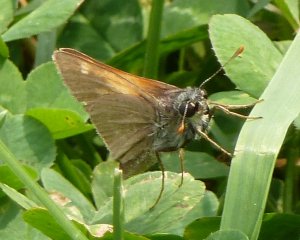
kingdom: Animalia
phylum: Arthropoda
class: Insecta
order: Lepidoptera
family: Hesperiidae
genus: Polites
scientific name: Polites themistocles
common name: Tawny-edged Skipper
